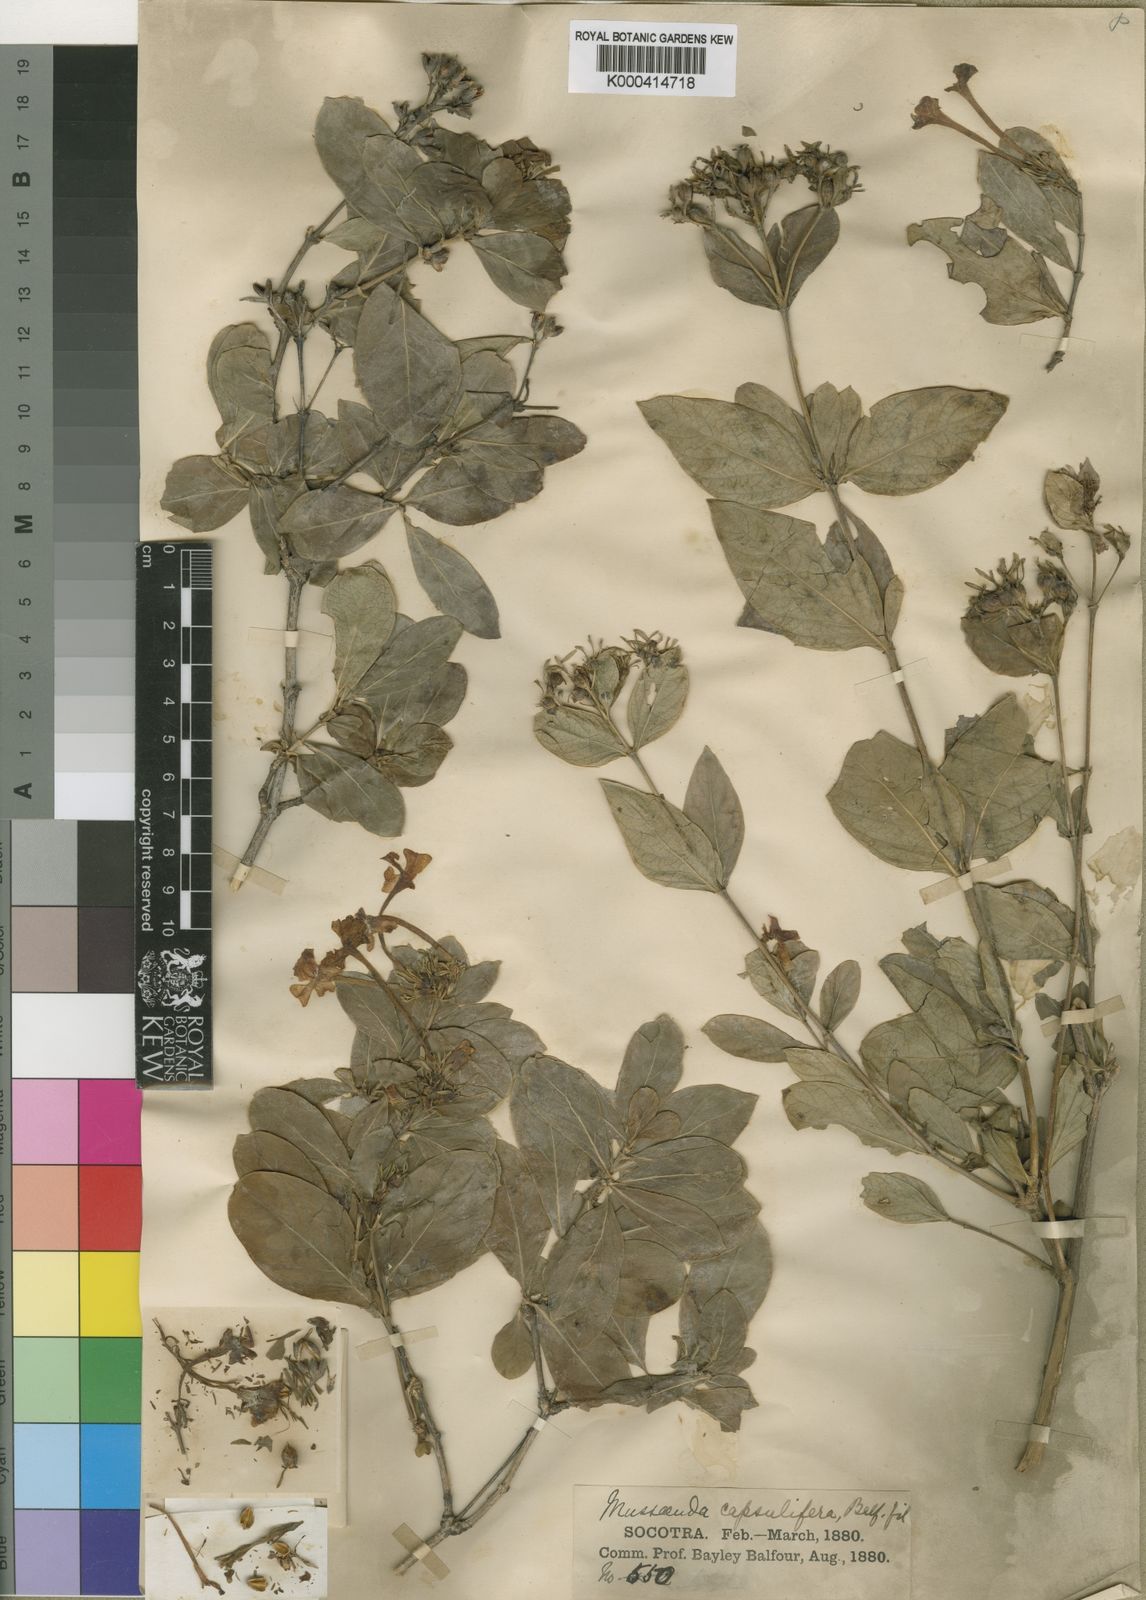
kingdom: Plantae
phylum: Tracheophyta
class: Magnoliopsida
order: Gentianales
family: Rubiaceae
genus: Tamridaea
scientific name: Tamridaea capsulifera
